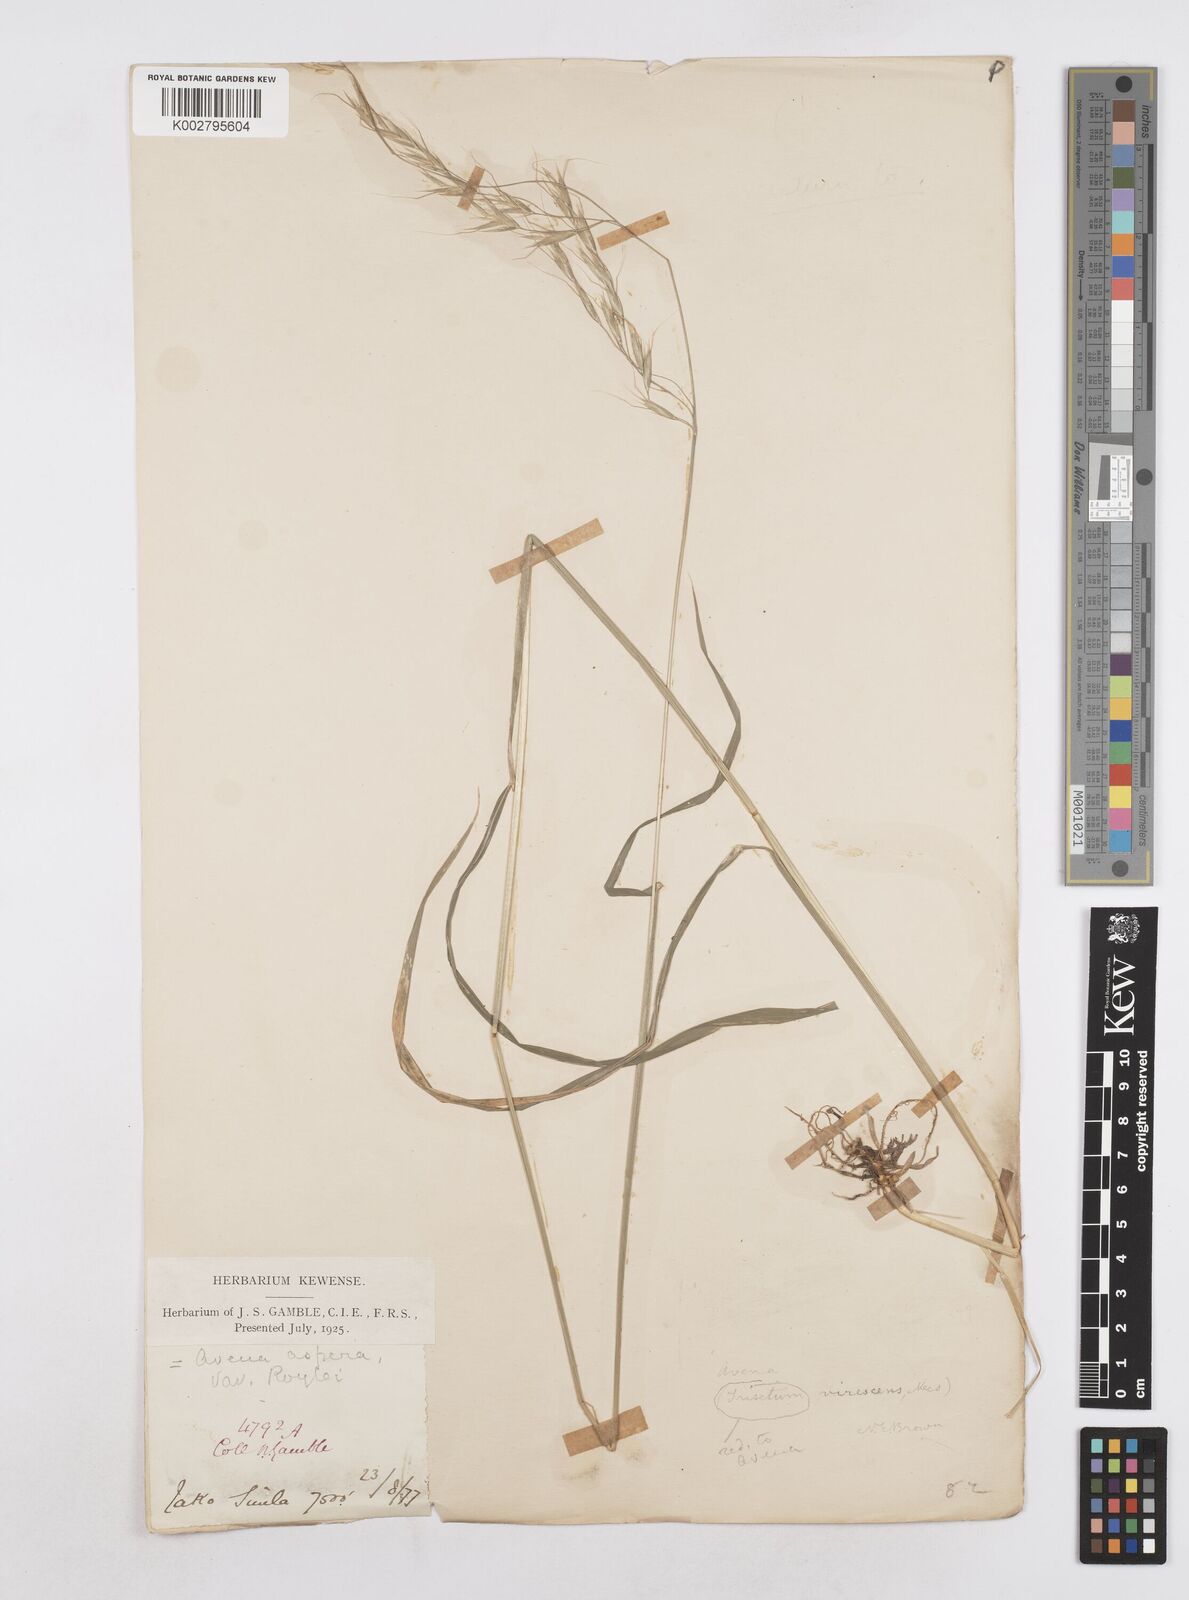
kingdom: Plantae
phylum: Tracheophyta
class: Liliopsida
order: Poales
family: Poaceae
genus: Helictotrichon
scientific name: Helictotrichon
